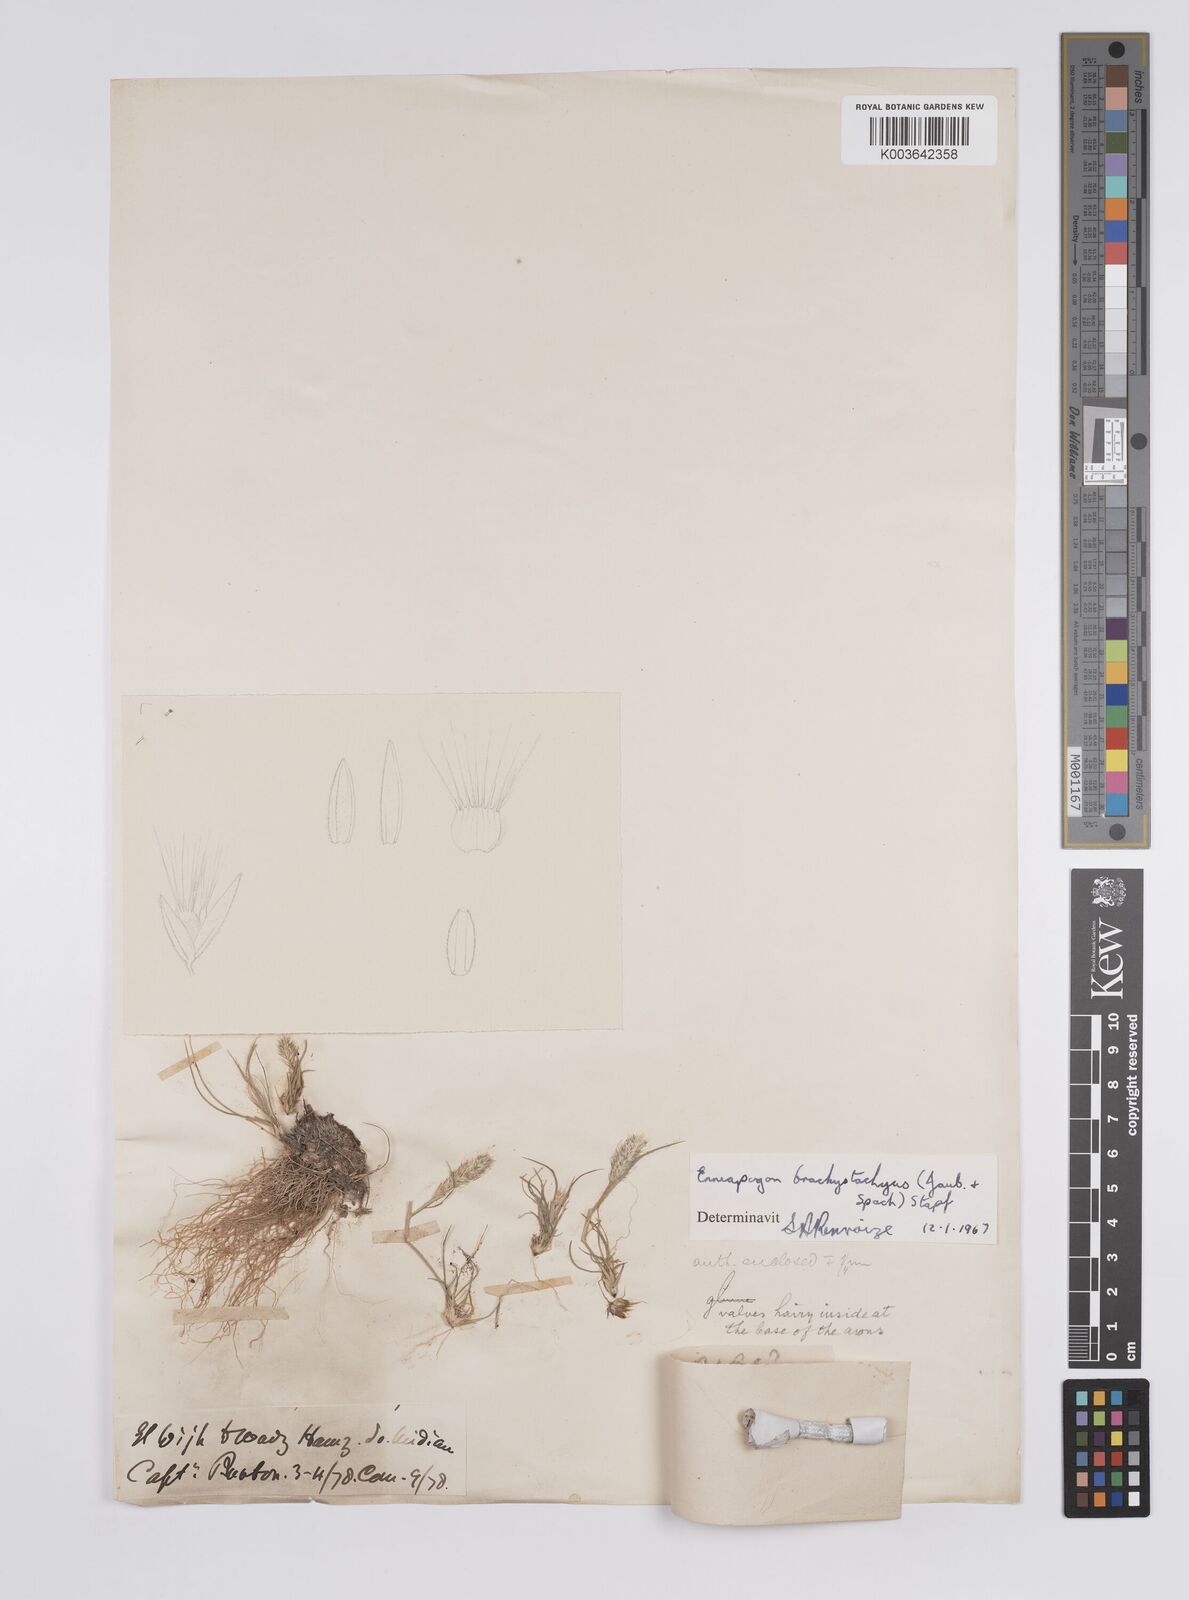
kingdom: Plantae
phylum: Tracheophyta
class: Liliopsida
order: Poales
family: Poaceae
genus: Enneapogon
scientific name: Enneapogon desvauxii
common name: Feather pappus grass
